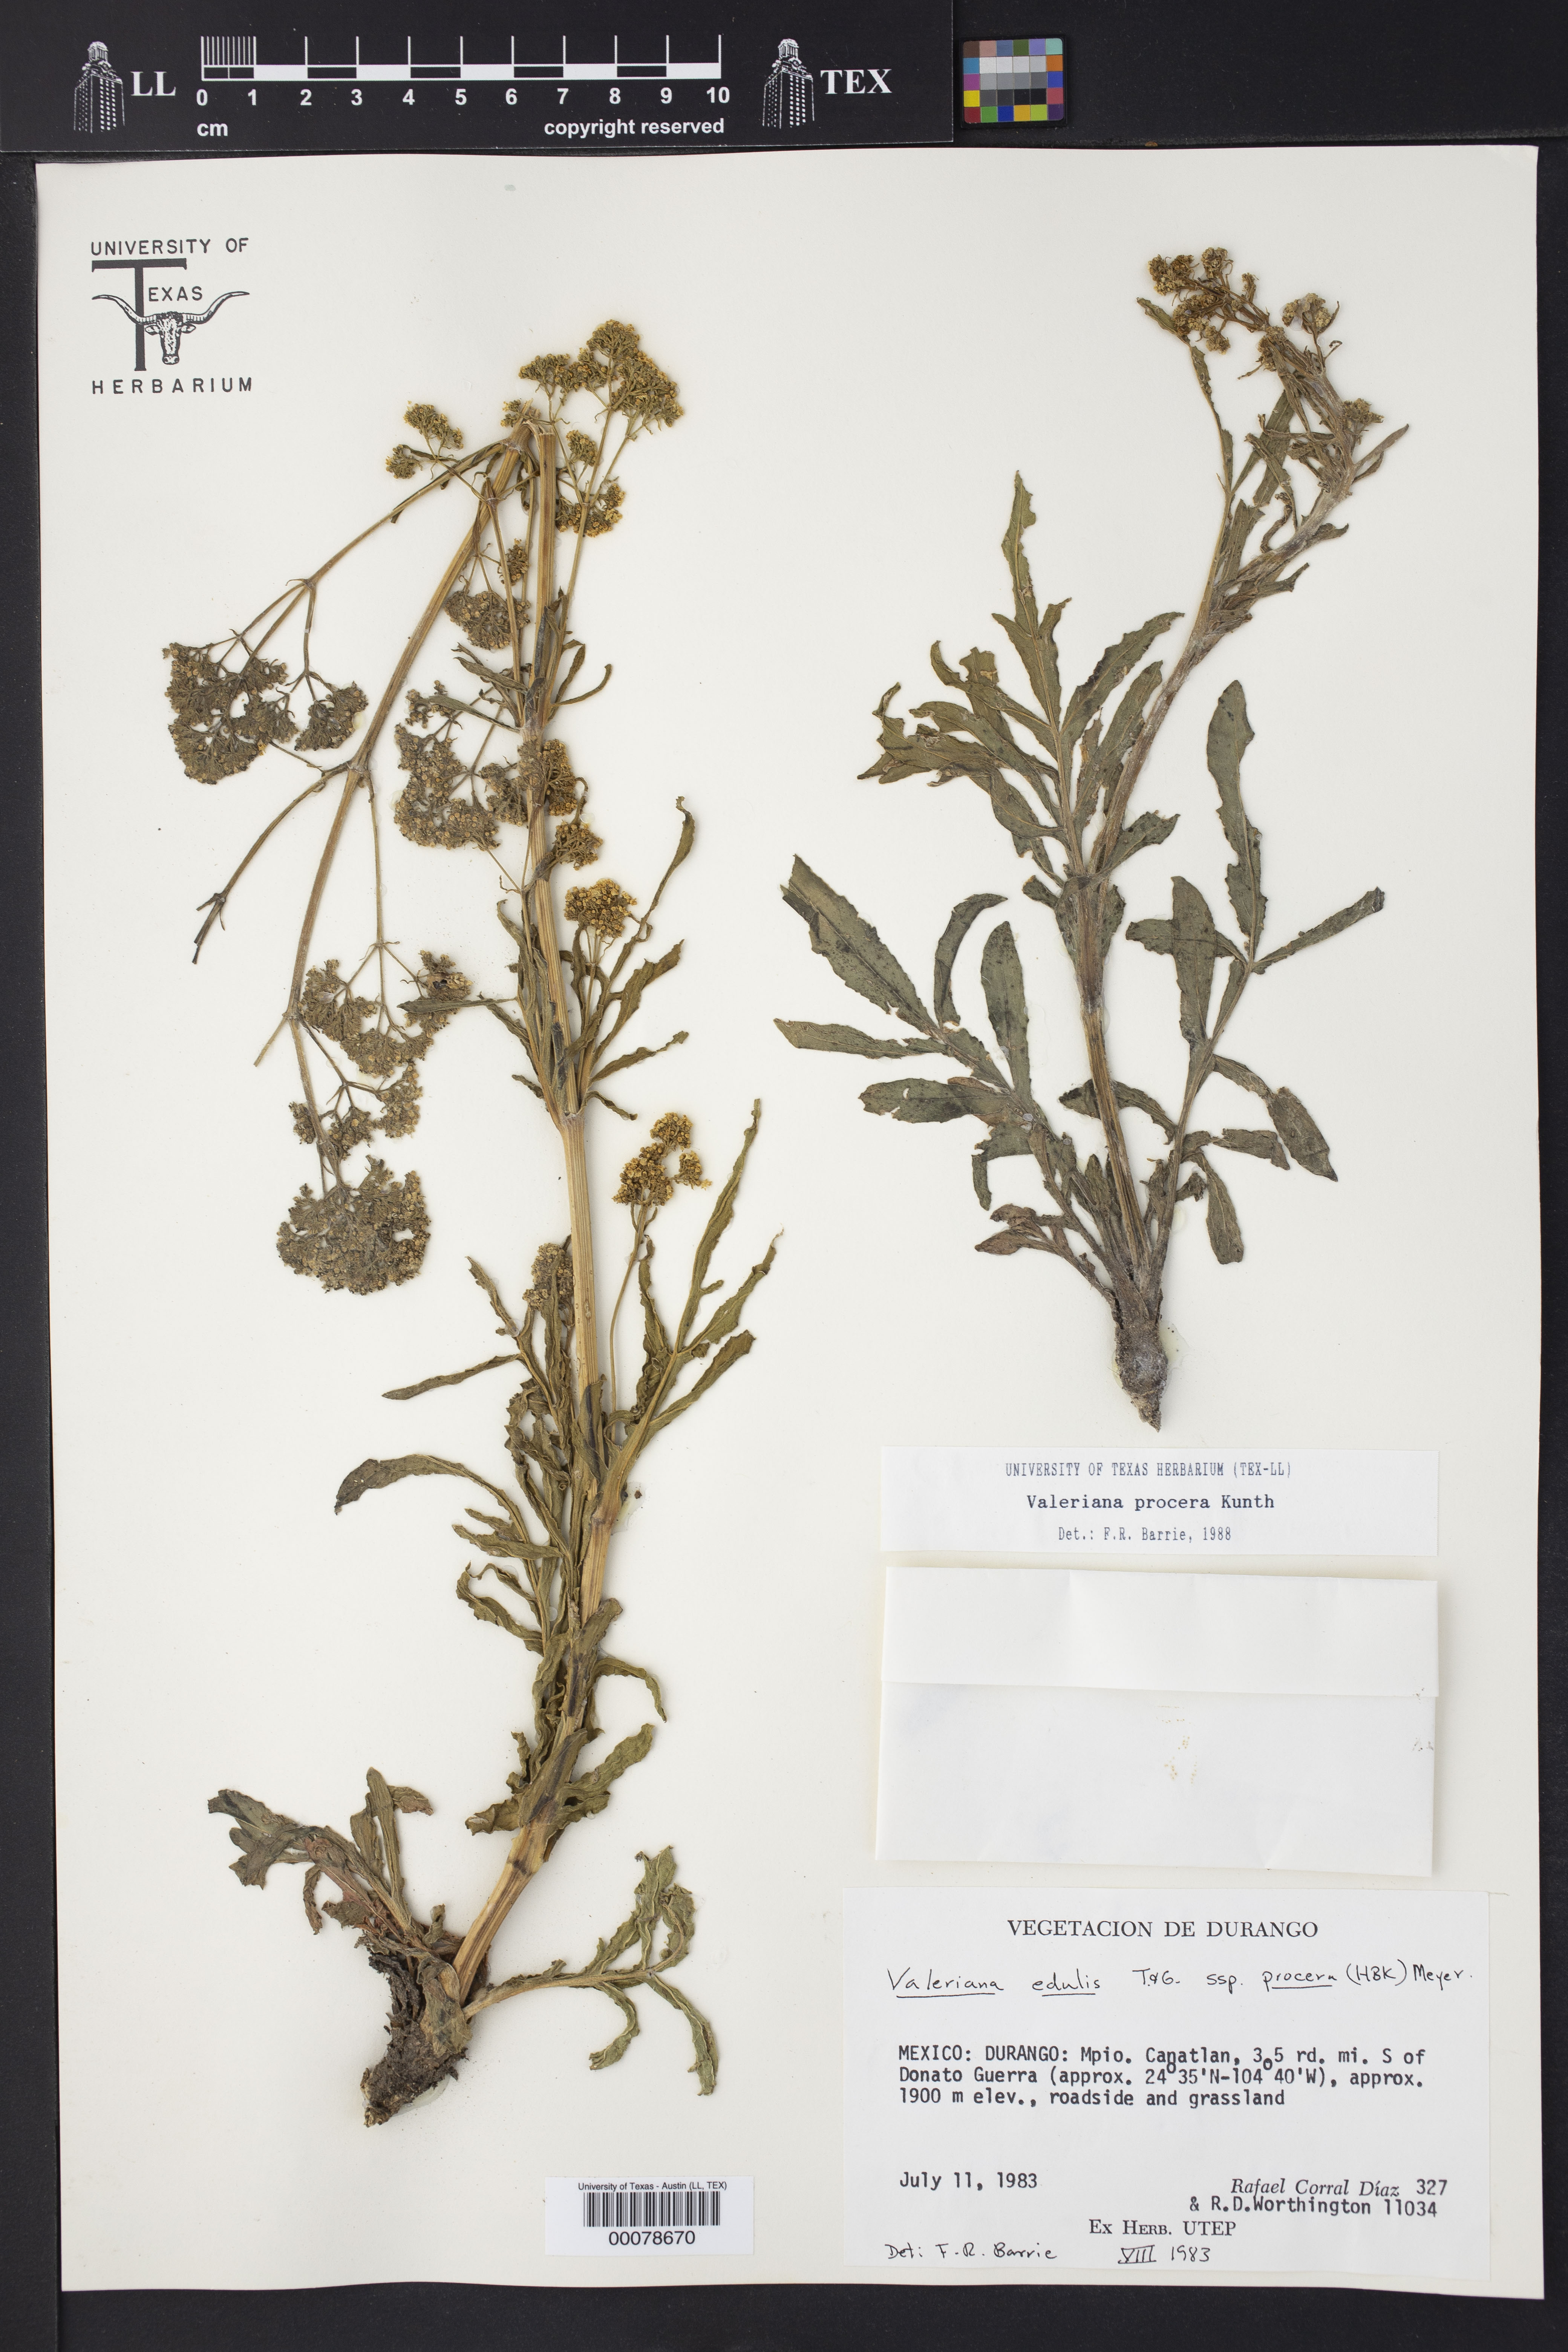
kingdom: Plantae
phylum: Tracheophyta
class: Magnoliopsida
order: Dipsacales
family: Caprifoliaceae
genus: Valeriana
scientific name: Valeriana edulis
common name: Taproot valerian
